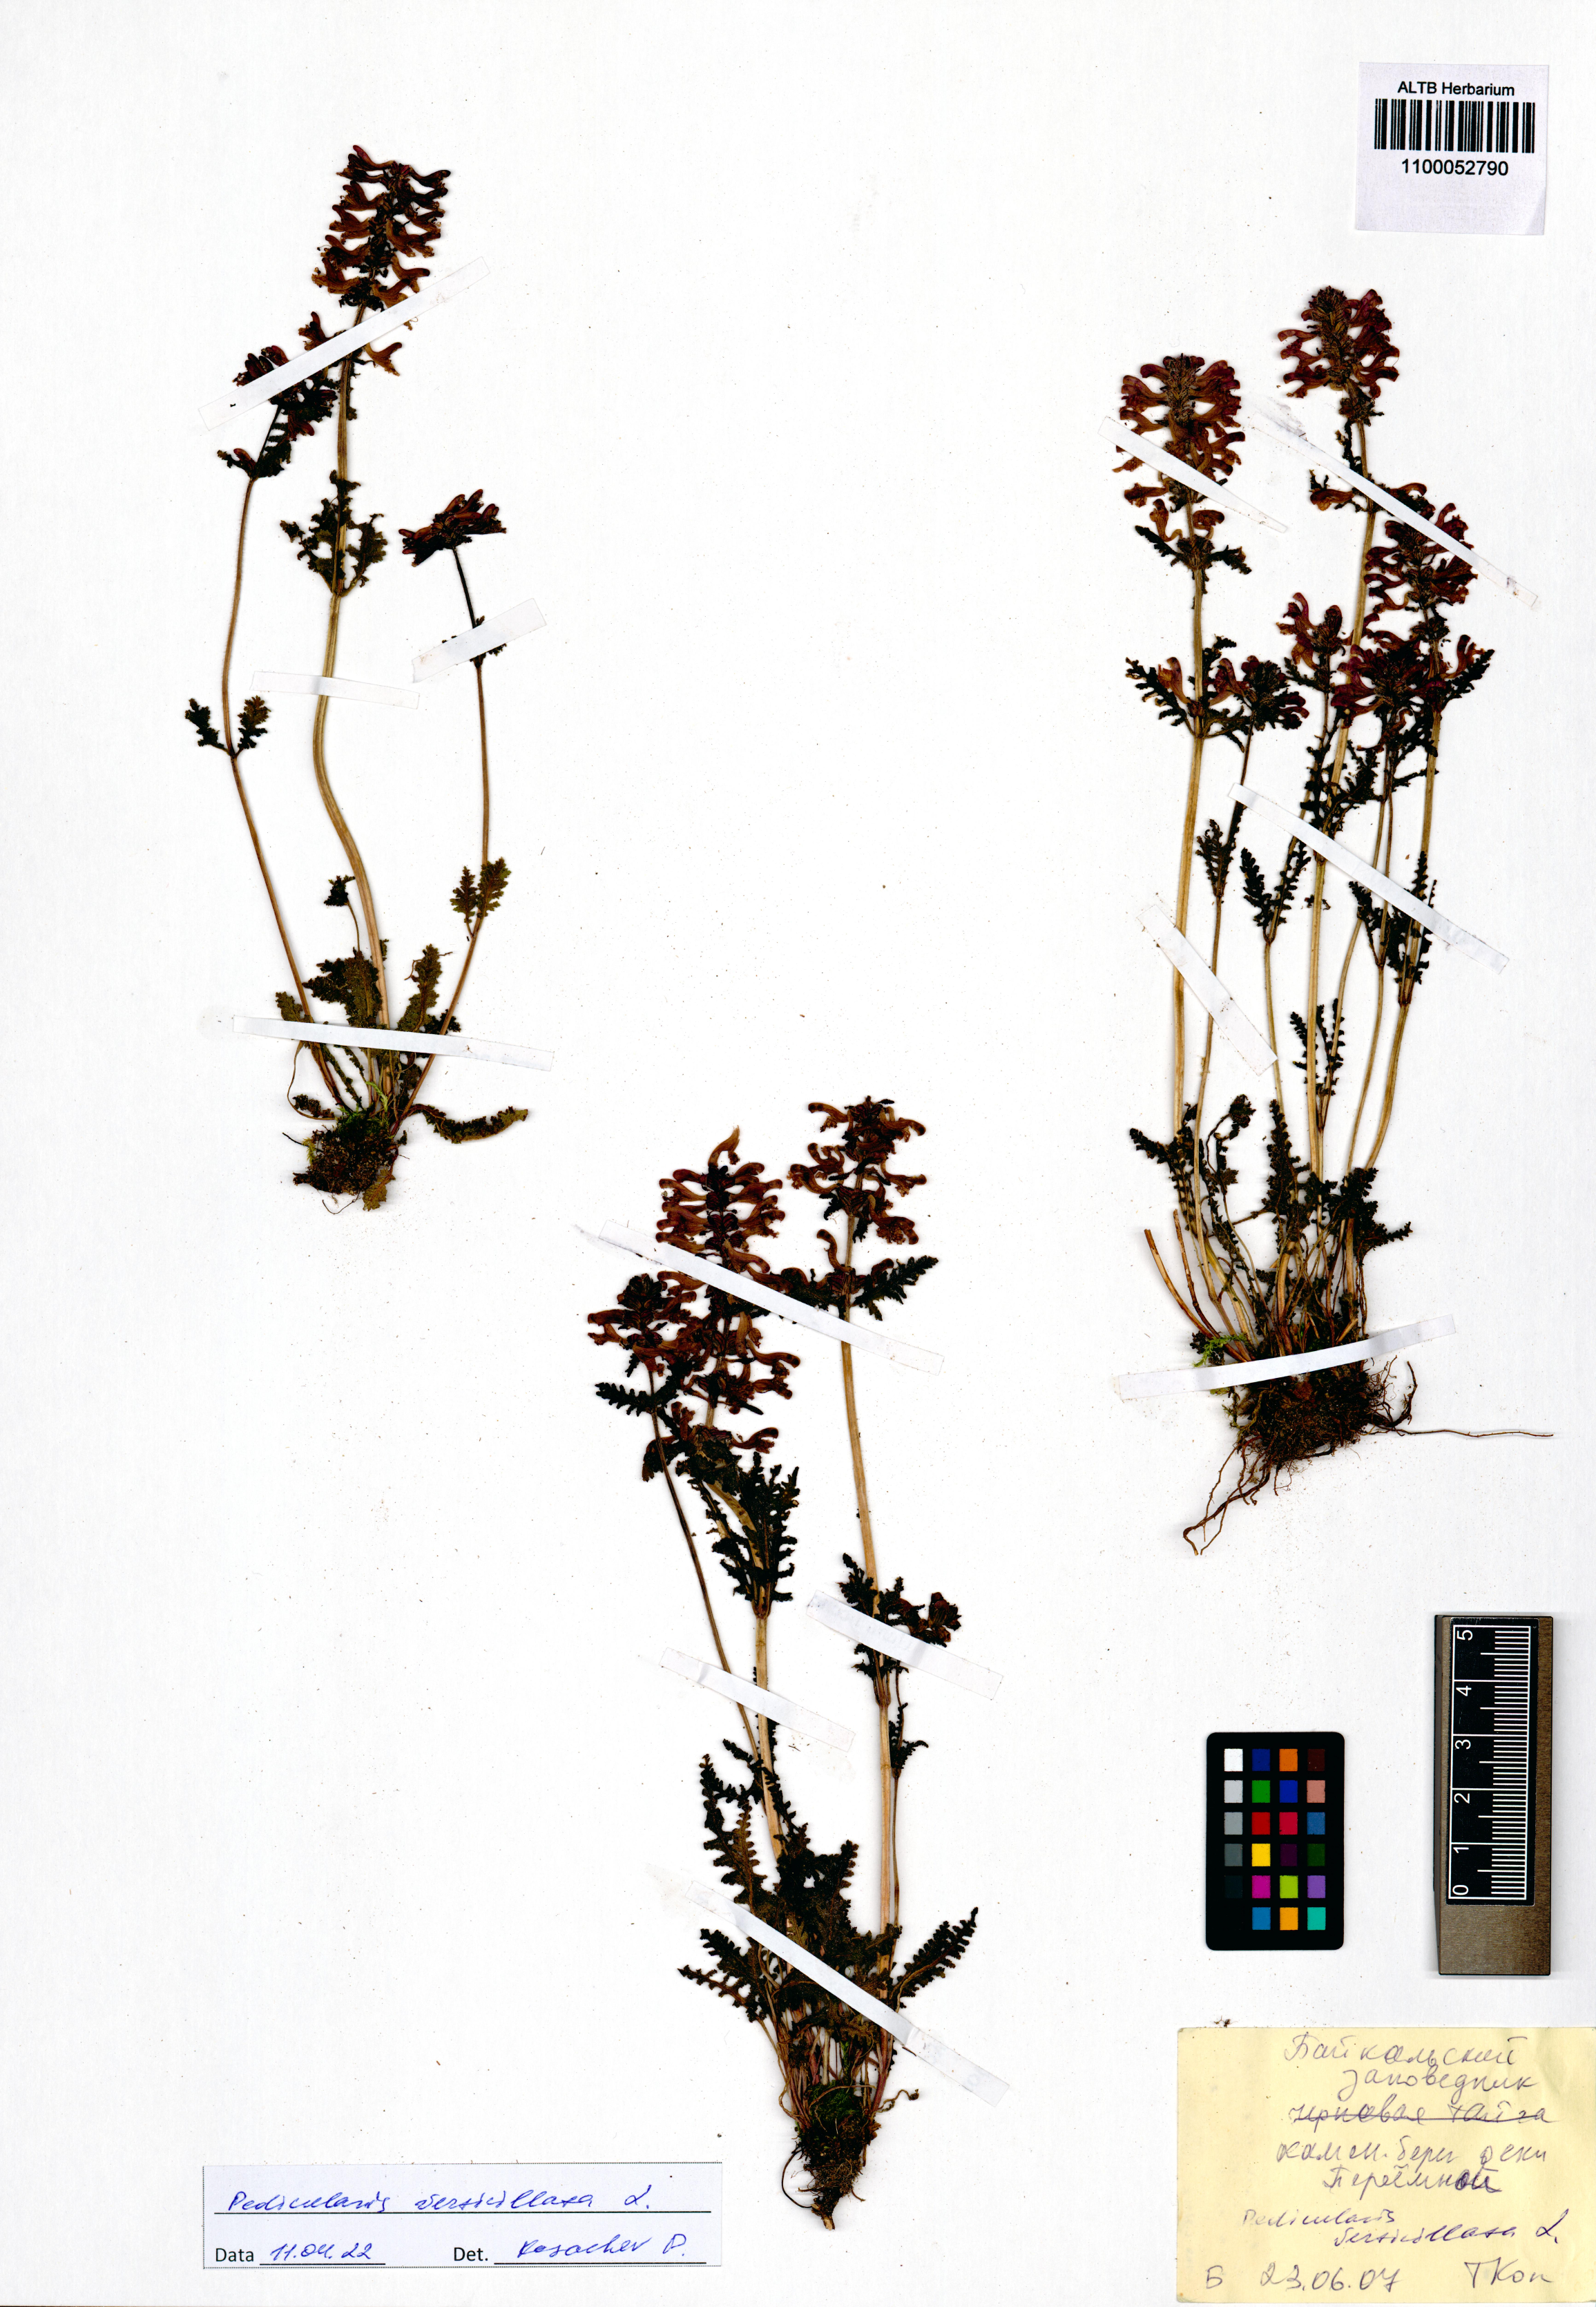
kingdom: Plantae
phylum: Tracheophyta
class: Magnoliopsida
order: Lamiales
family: Orobanchaceae
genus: Pedicularis
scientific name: Pedicularis verticillata
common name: Whorled lousewort
